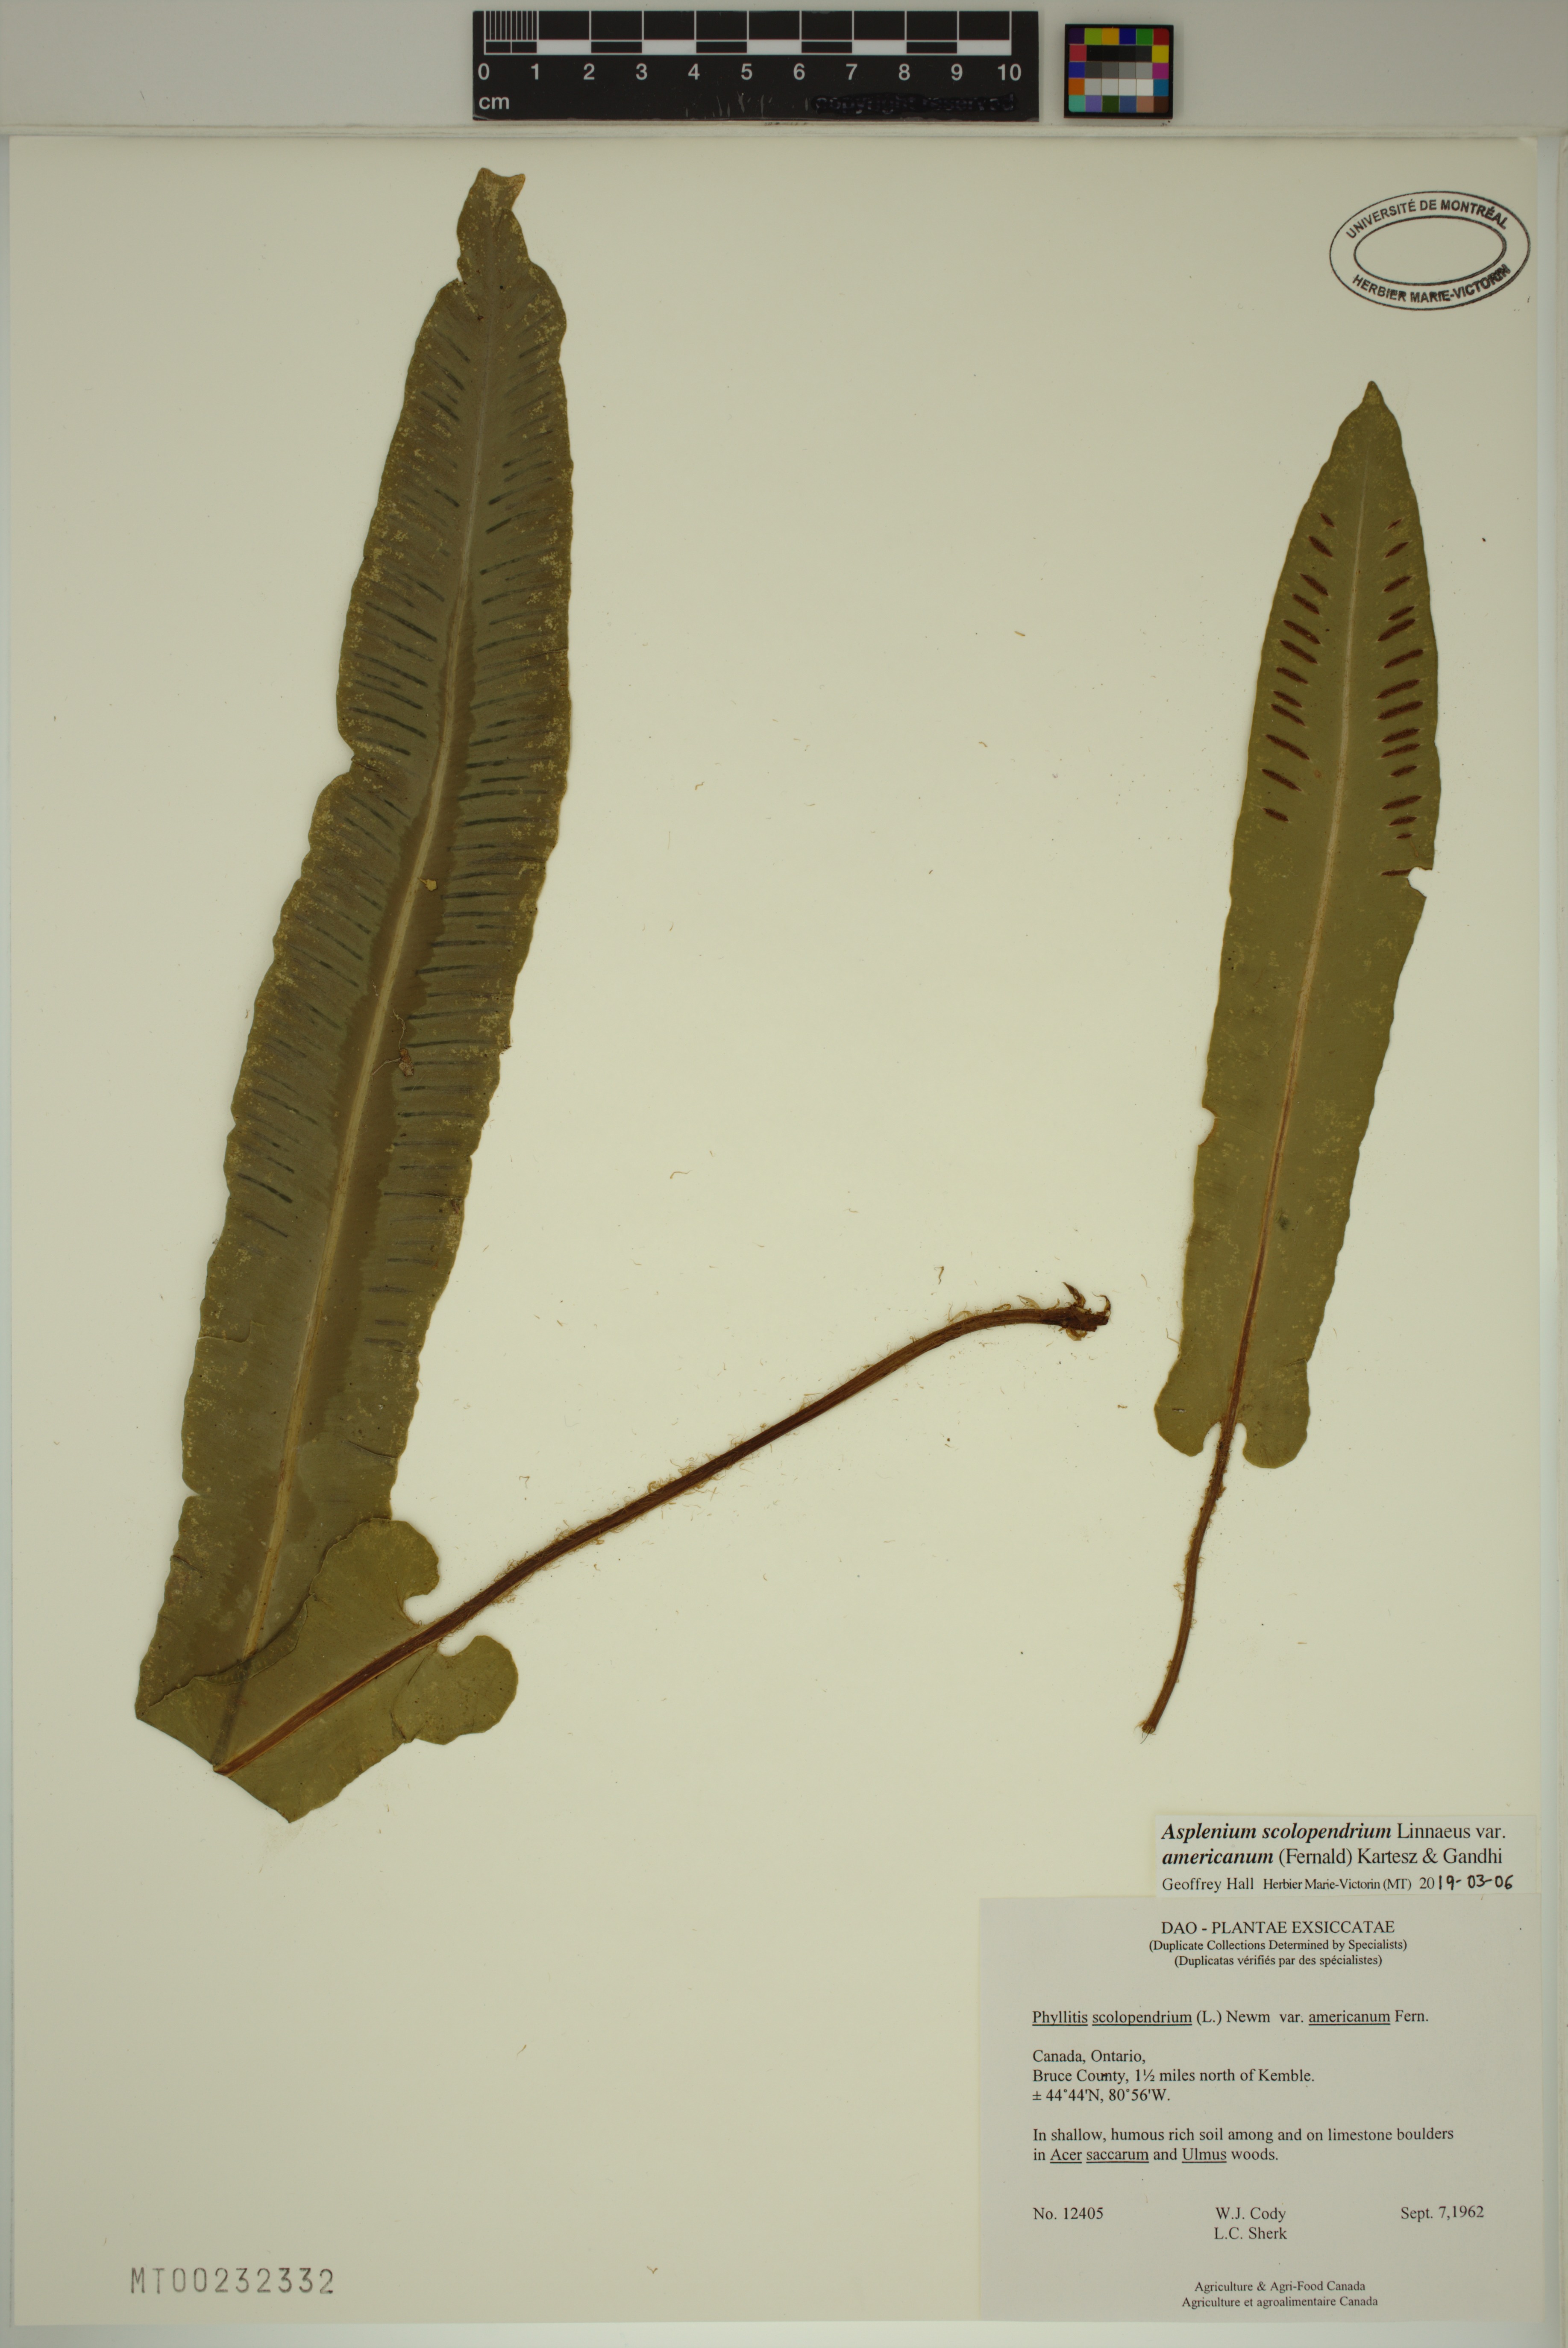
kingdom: Plantae
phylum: Tracheophyta
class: Magnoliopsida
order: Lamiales
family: Bignoniaceae
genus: Kigelia
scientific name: Kigelia africana
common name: Sausage tree
